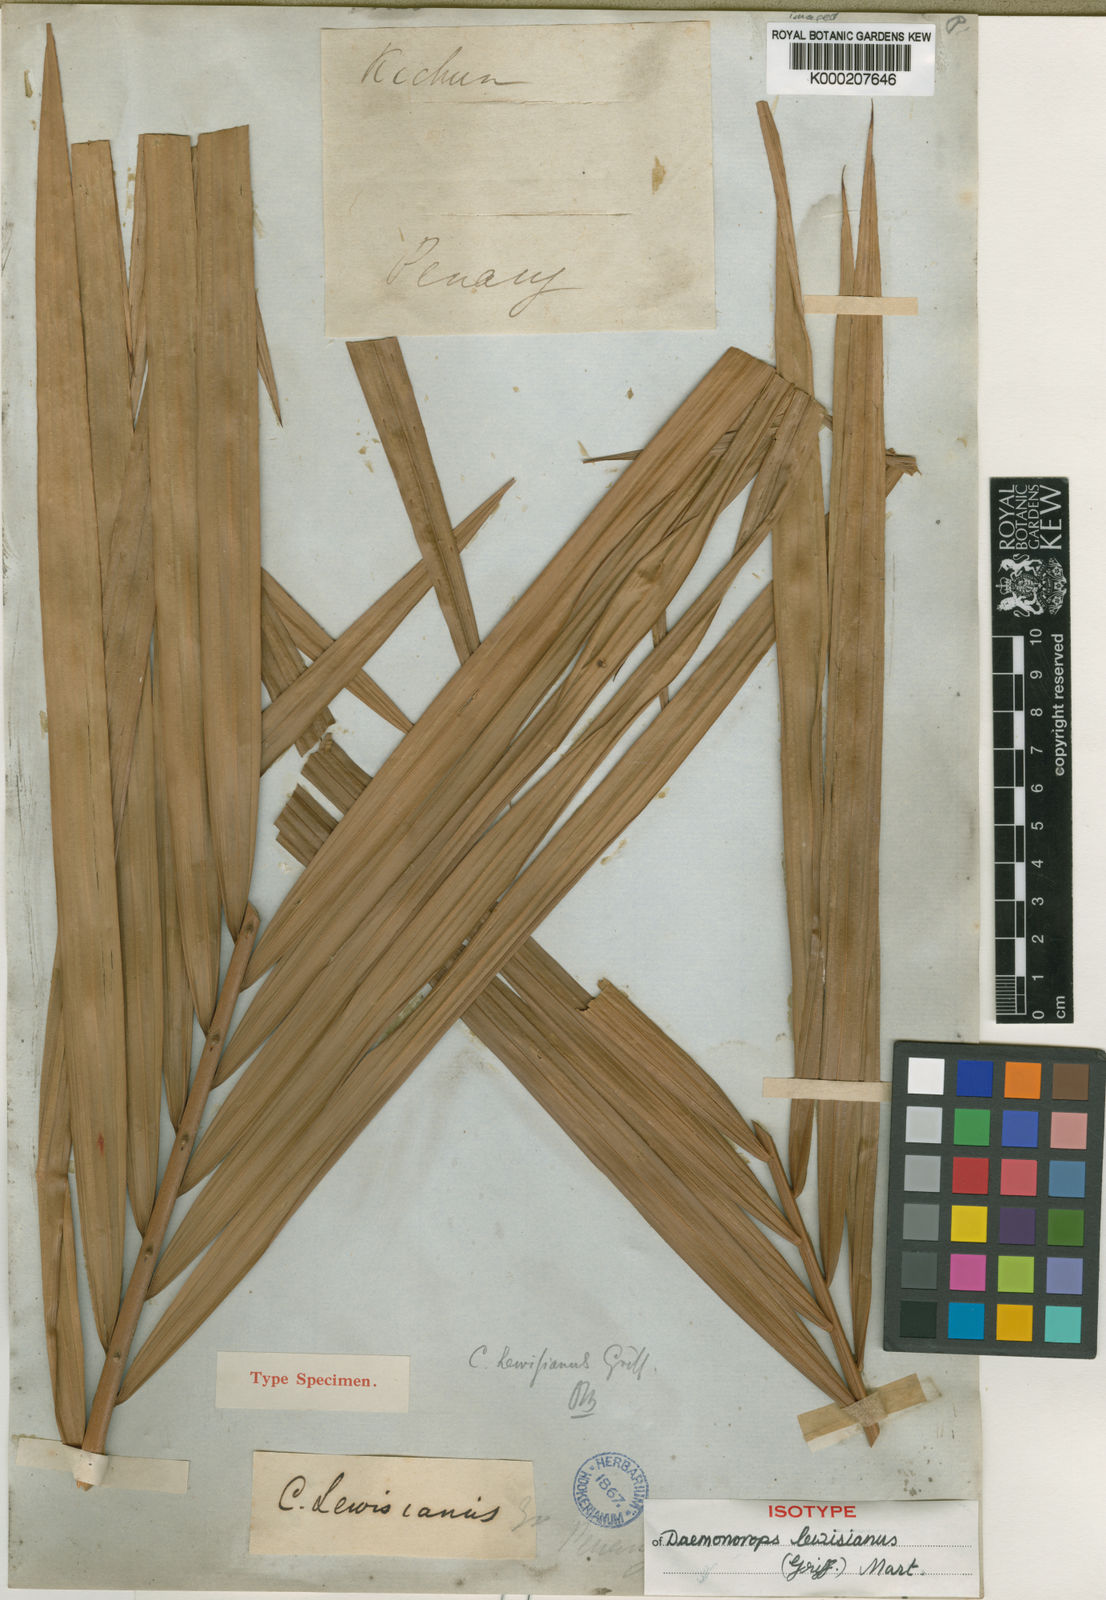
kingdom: Plantae
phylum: Tracheophyta
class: Liliopsida
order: Arecales
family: Arecaceae
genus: Calamus
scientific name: Calamus melanochaetes
